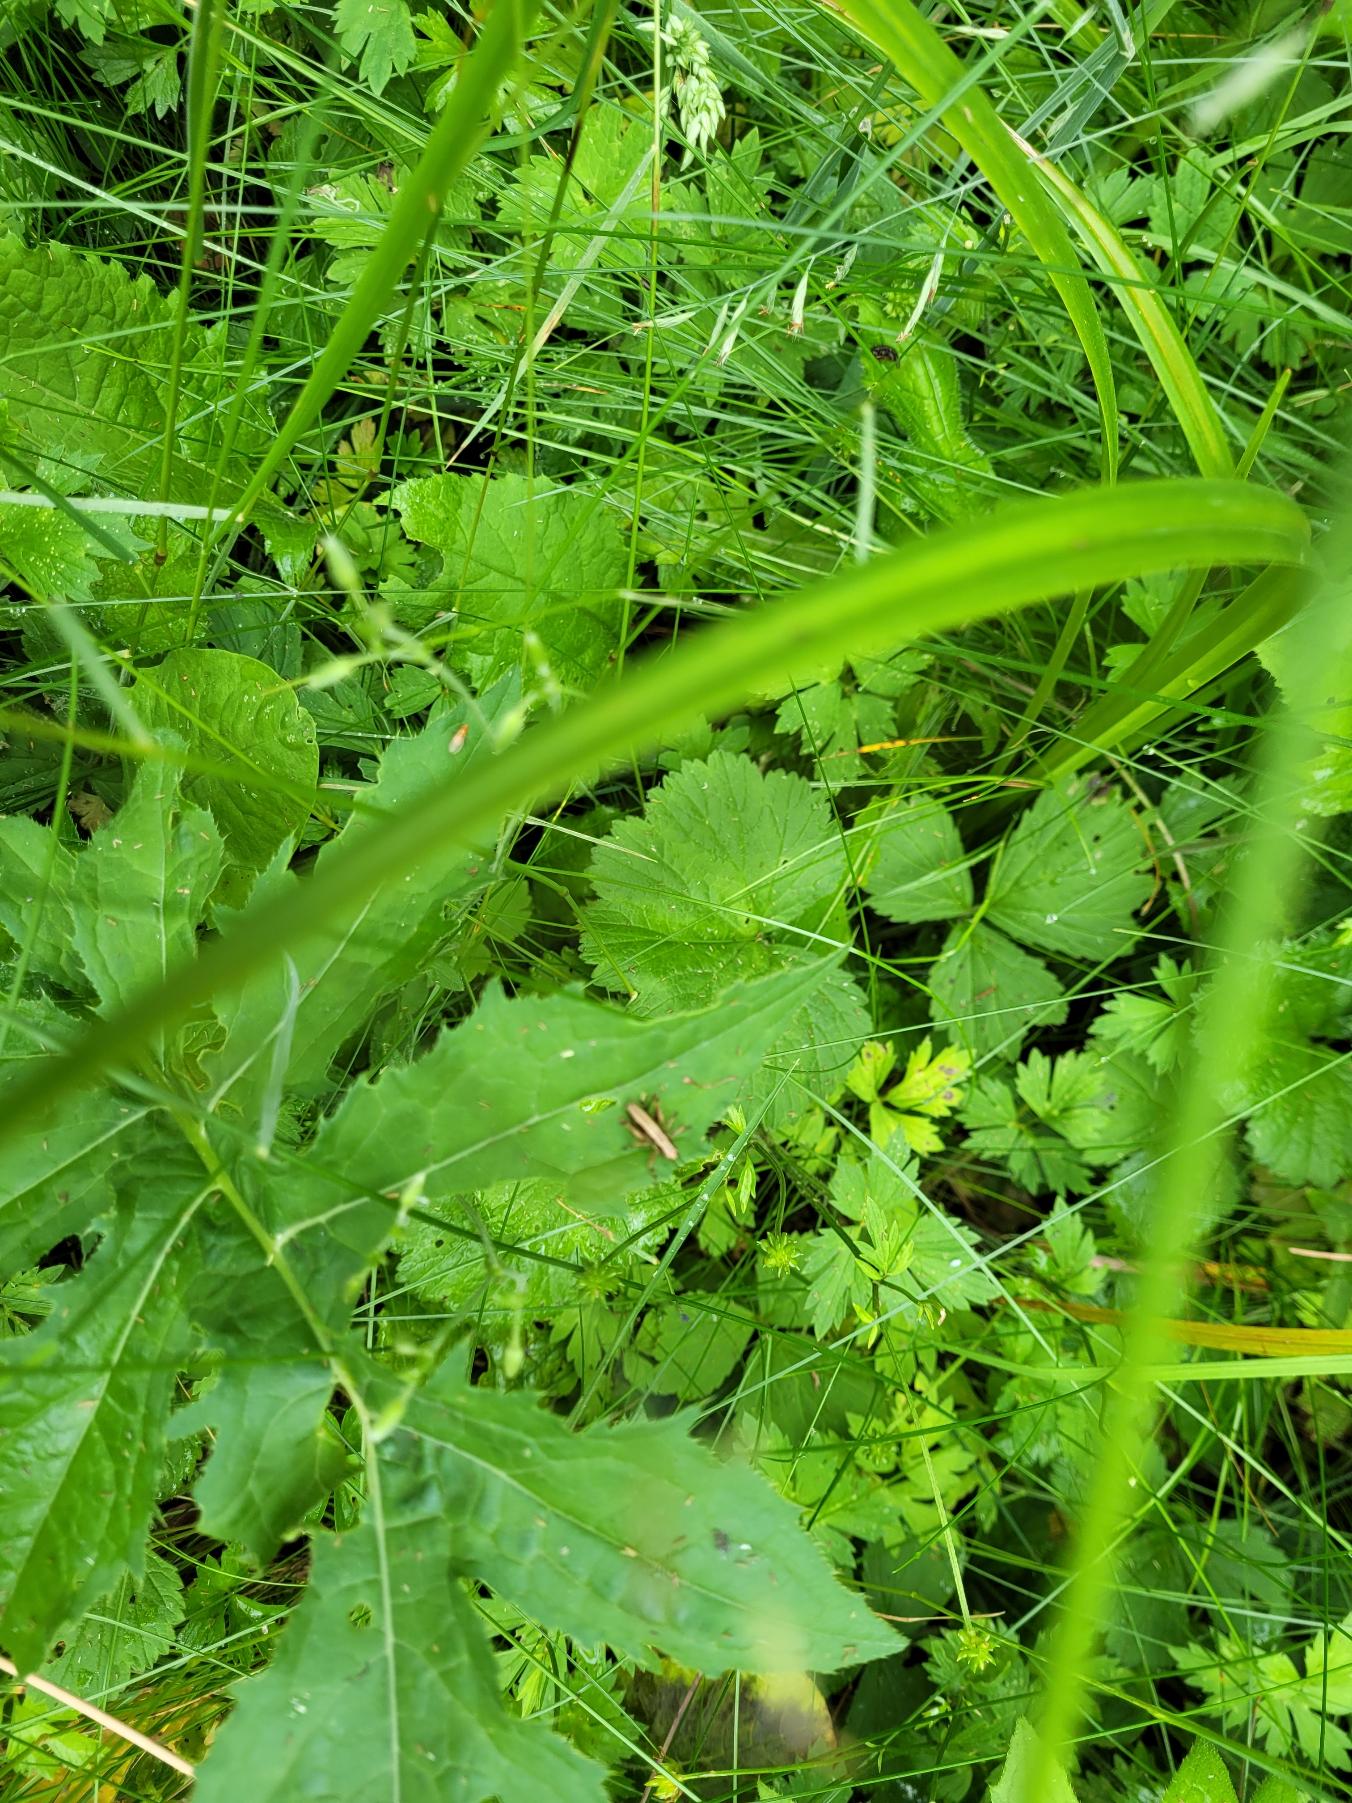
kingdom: Animalia
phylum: Arthropoda
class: Insecta
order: Orthoptera
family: Tettigoniidae
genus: Pholidoptera
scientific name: Pholidoptera griseoaptera
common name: Buskgræshoppe
